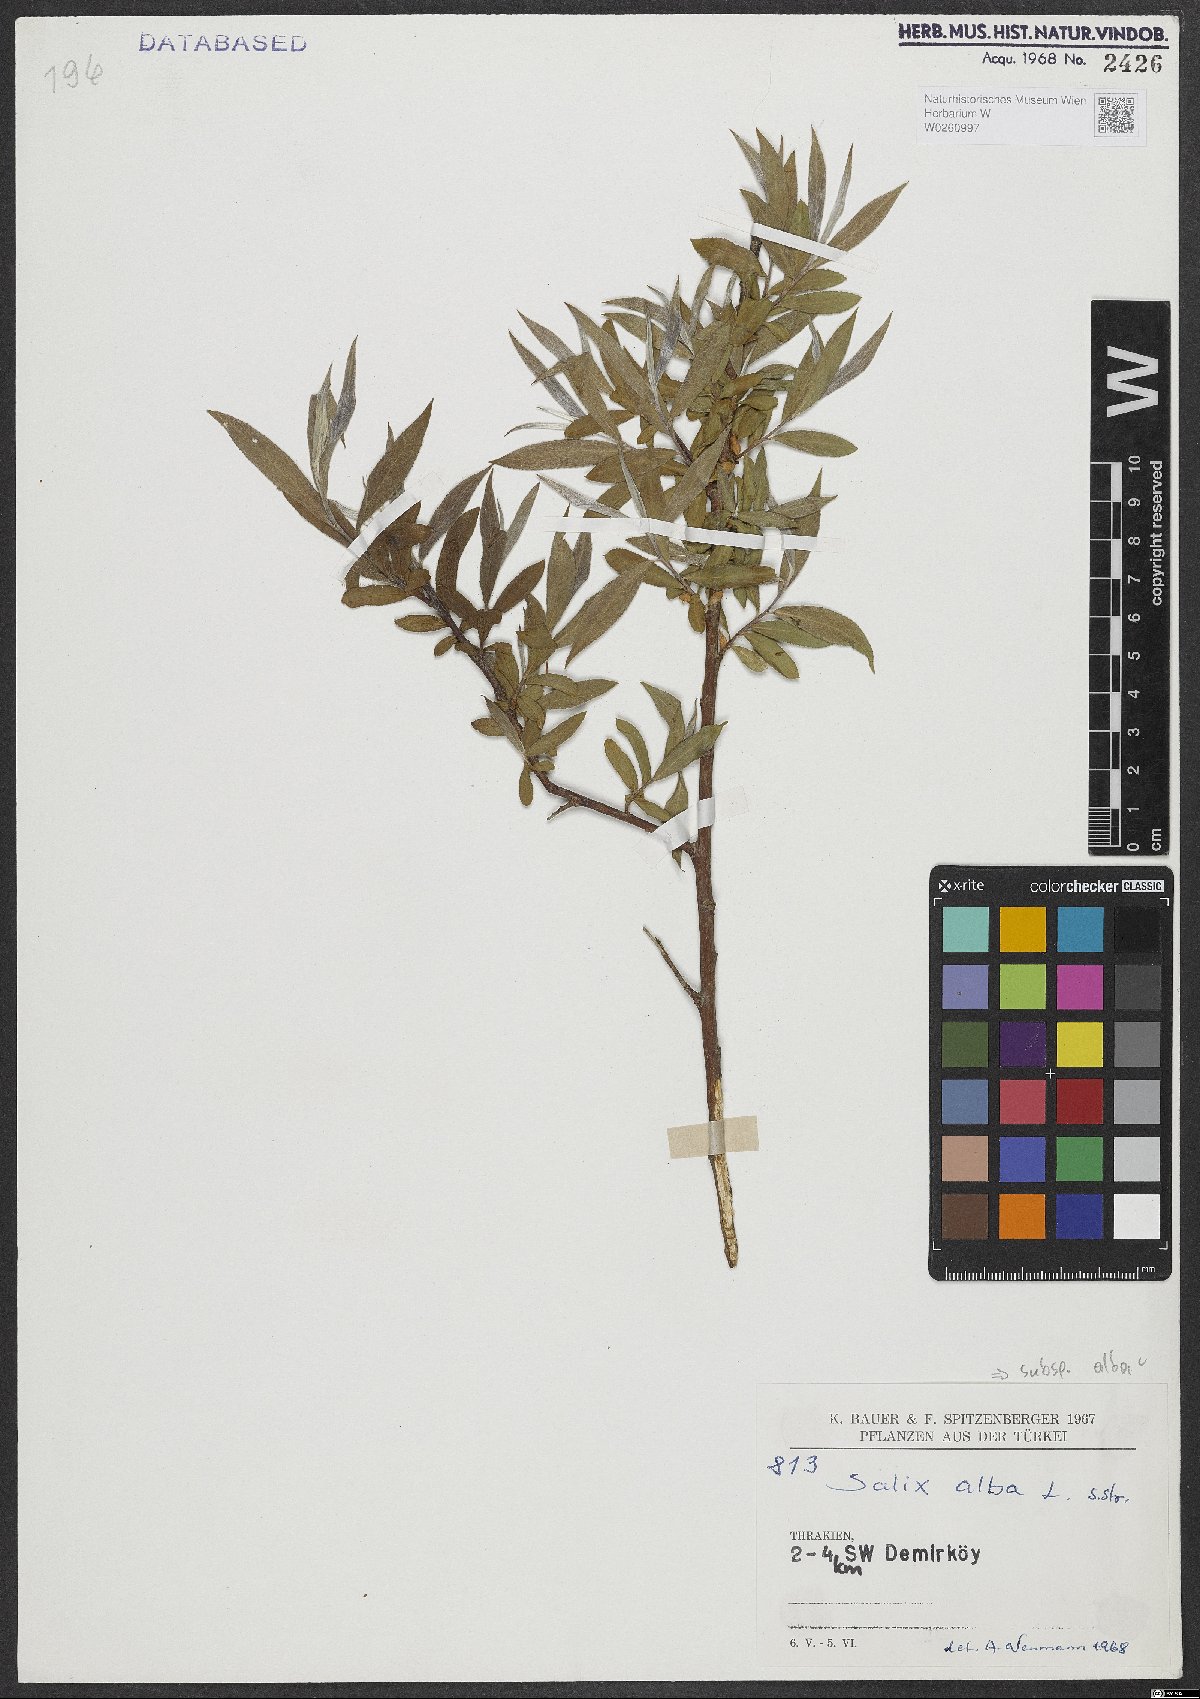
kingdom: Plantae
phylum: Tracheophyta
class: Magnoliopsida
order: Malpighiales
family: Salicaceae
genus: Salix
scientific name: Salix alba
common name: White willow
